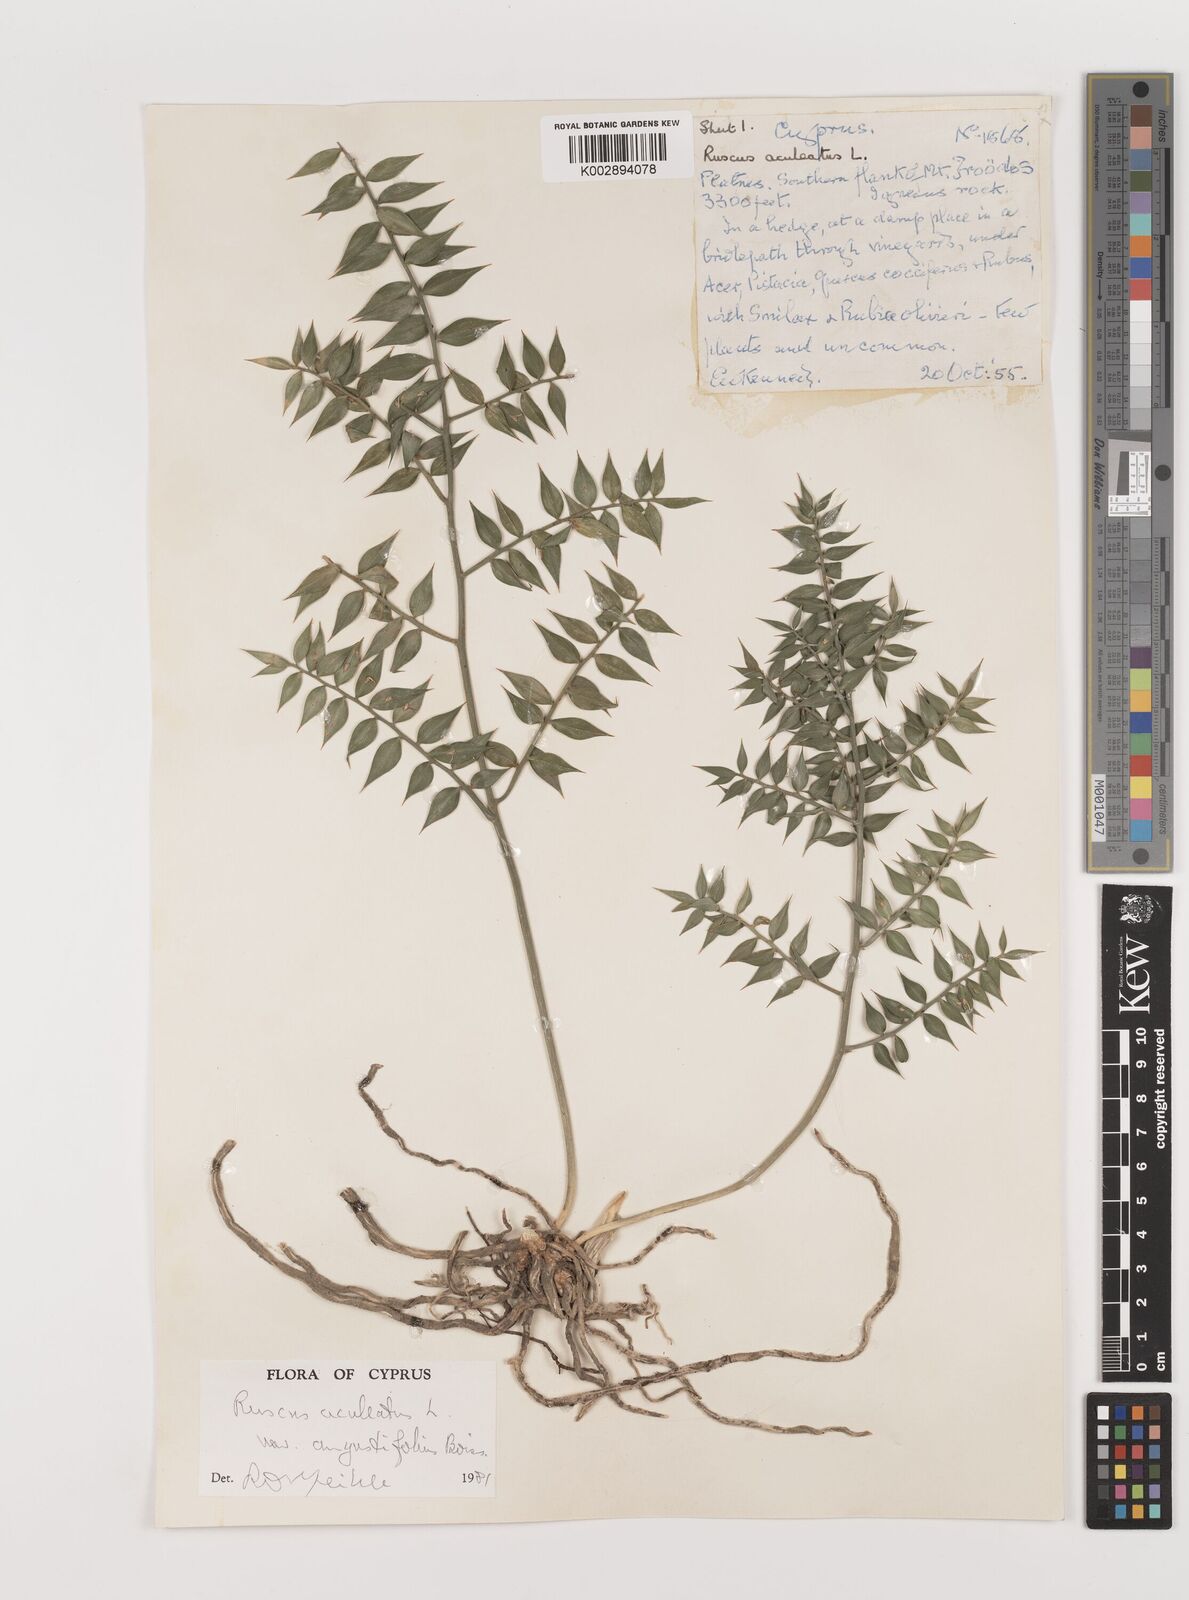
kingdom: Plantae
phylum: Tracheophyta
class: Liliopsida
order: Asparagales
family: Asparagaceae
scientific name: Asparagaceae
